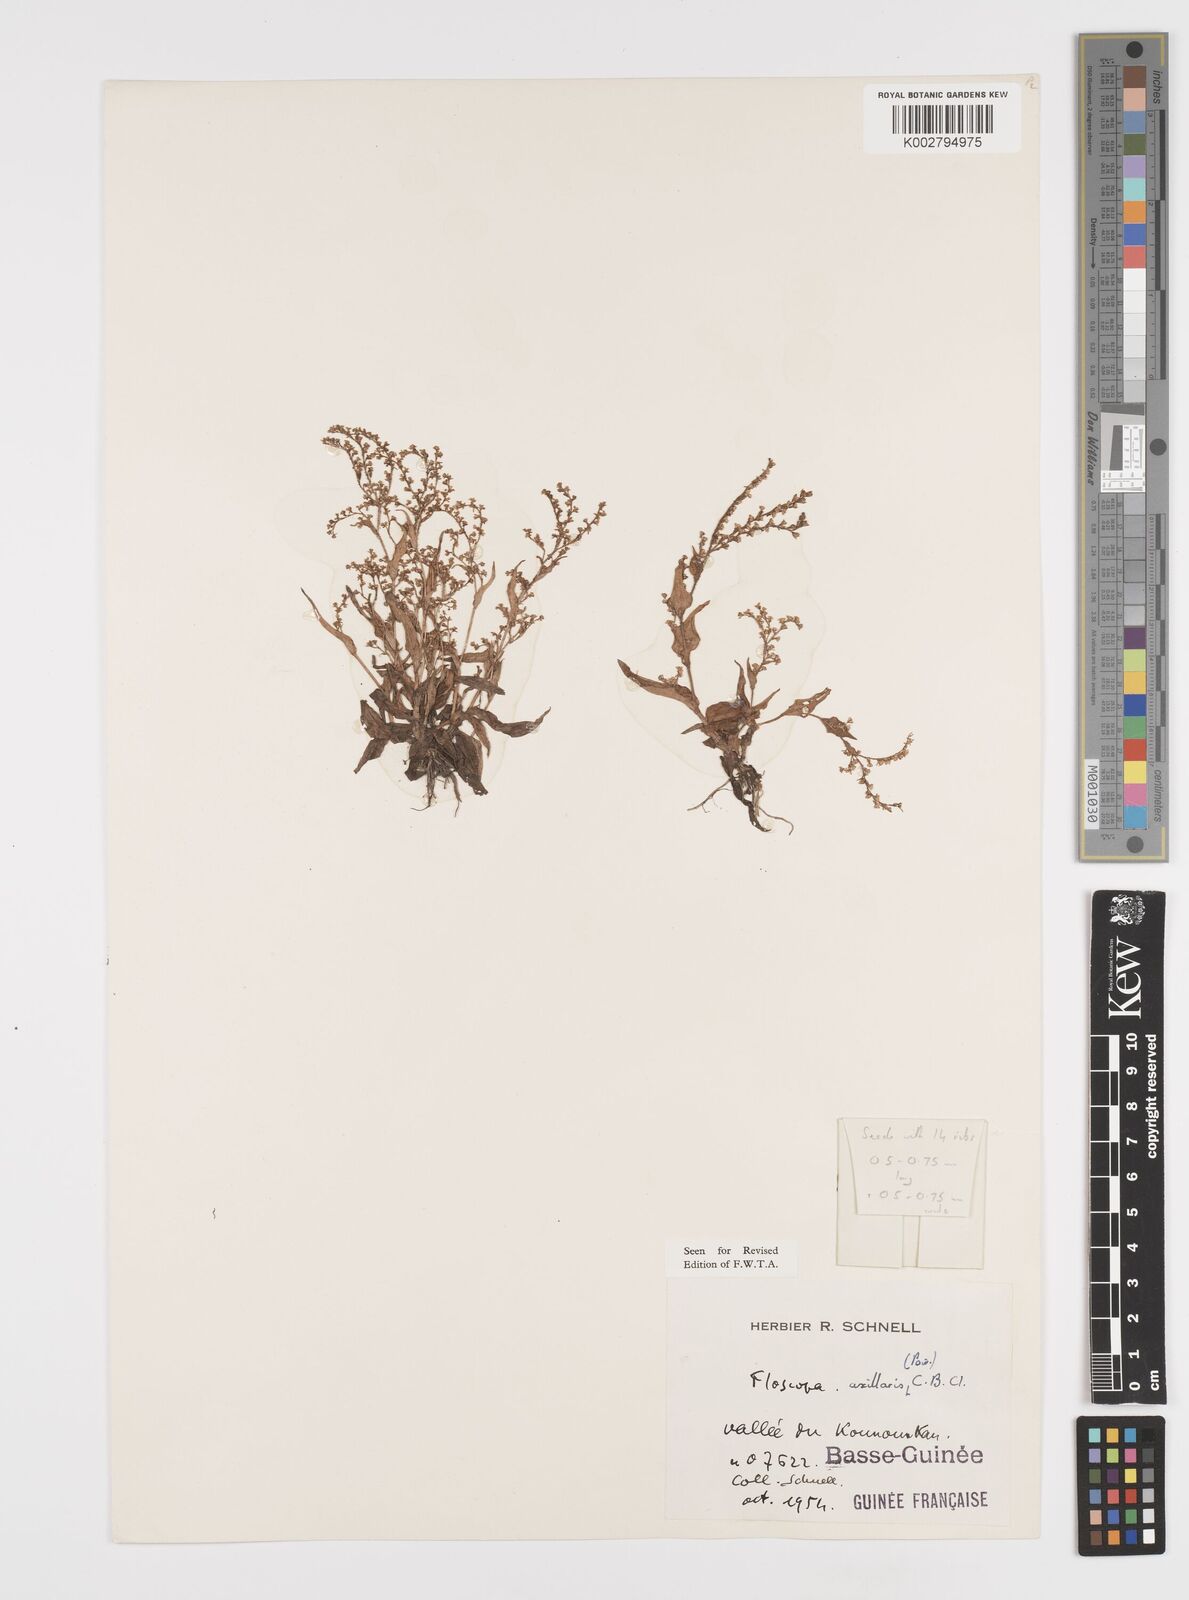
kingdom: Plantae
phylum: Tracheophyta
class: Liliopsida
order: Commelinales
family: Commelinaceae
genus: Floscopa
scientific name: Floscopa axillaris
